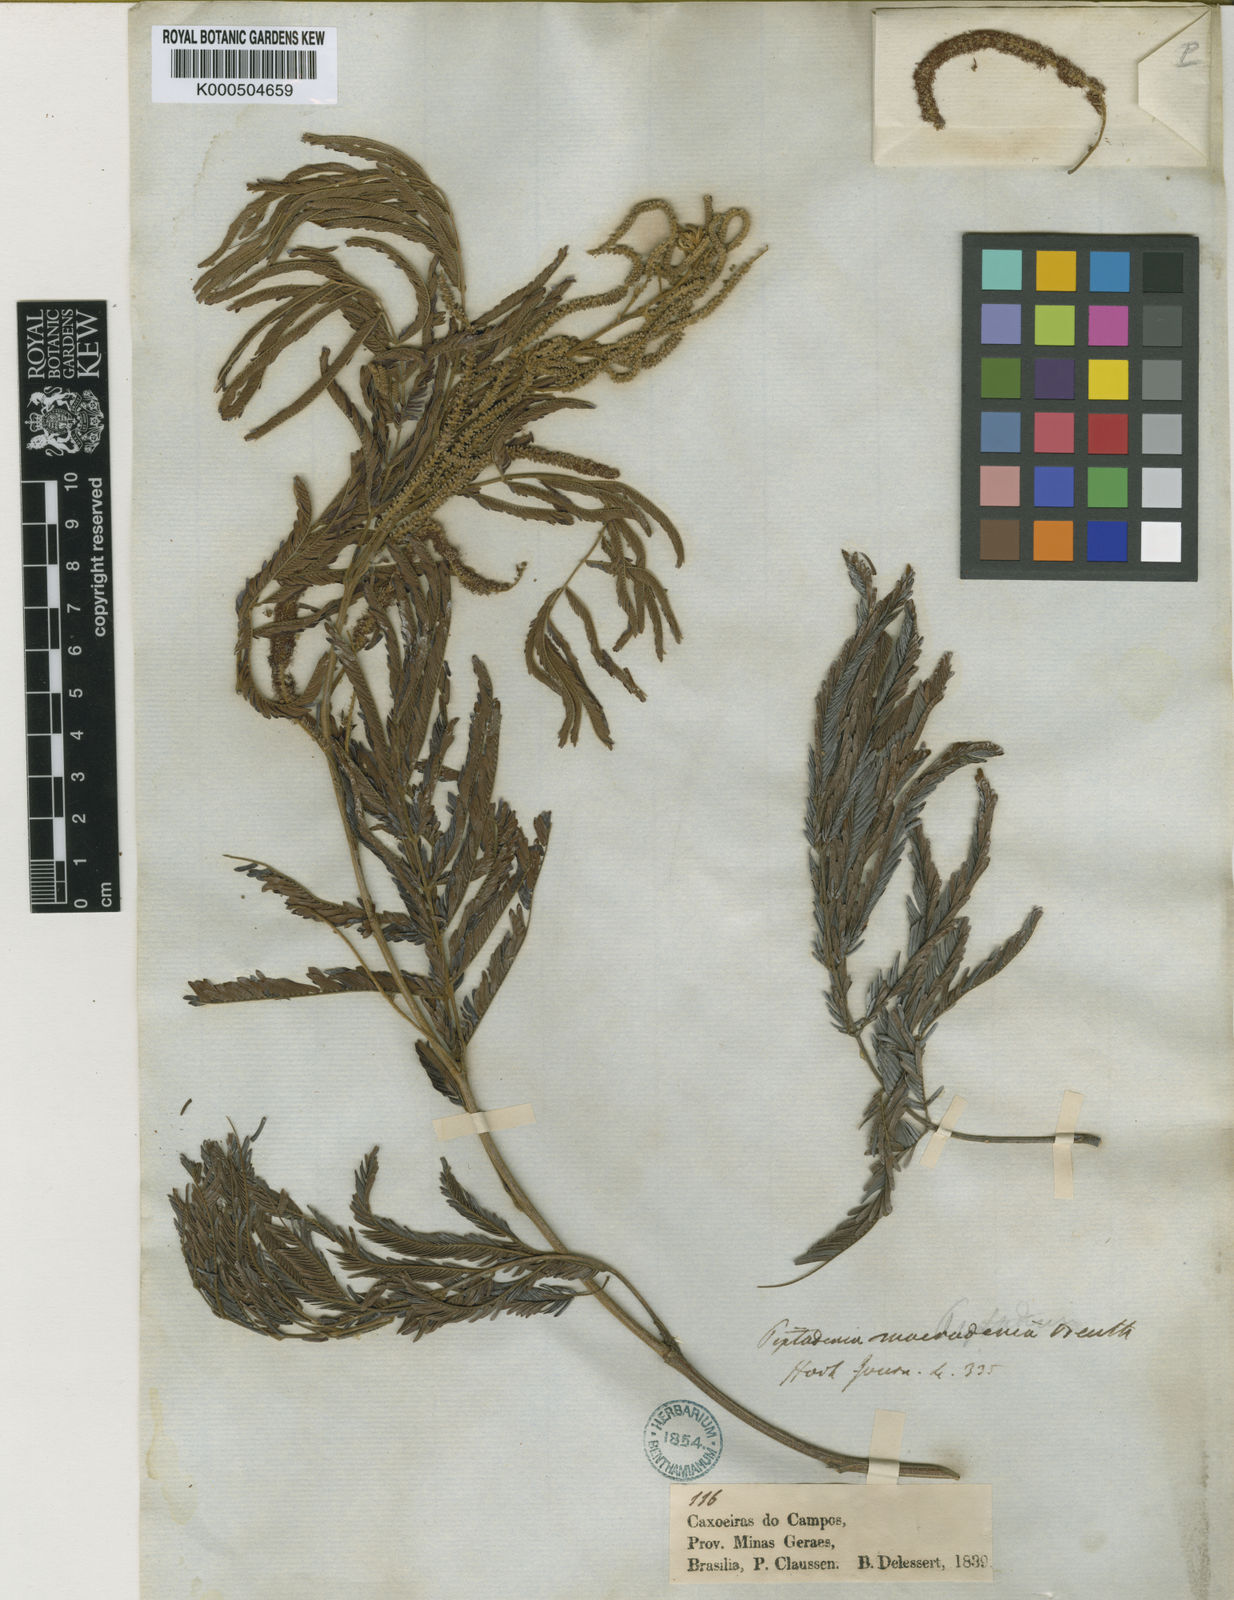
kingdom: Plantae
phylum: Tracheophyta
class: Magnoliopsida
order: Fabales
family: Fabaceae
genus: Piptadenia
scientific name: Piptadenia macradenia
